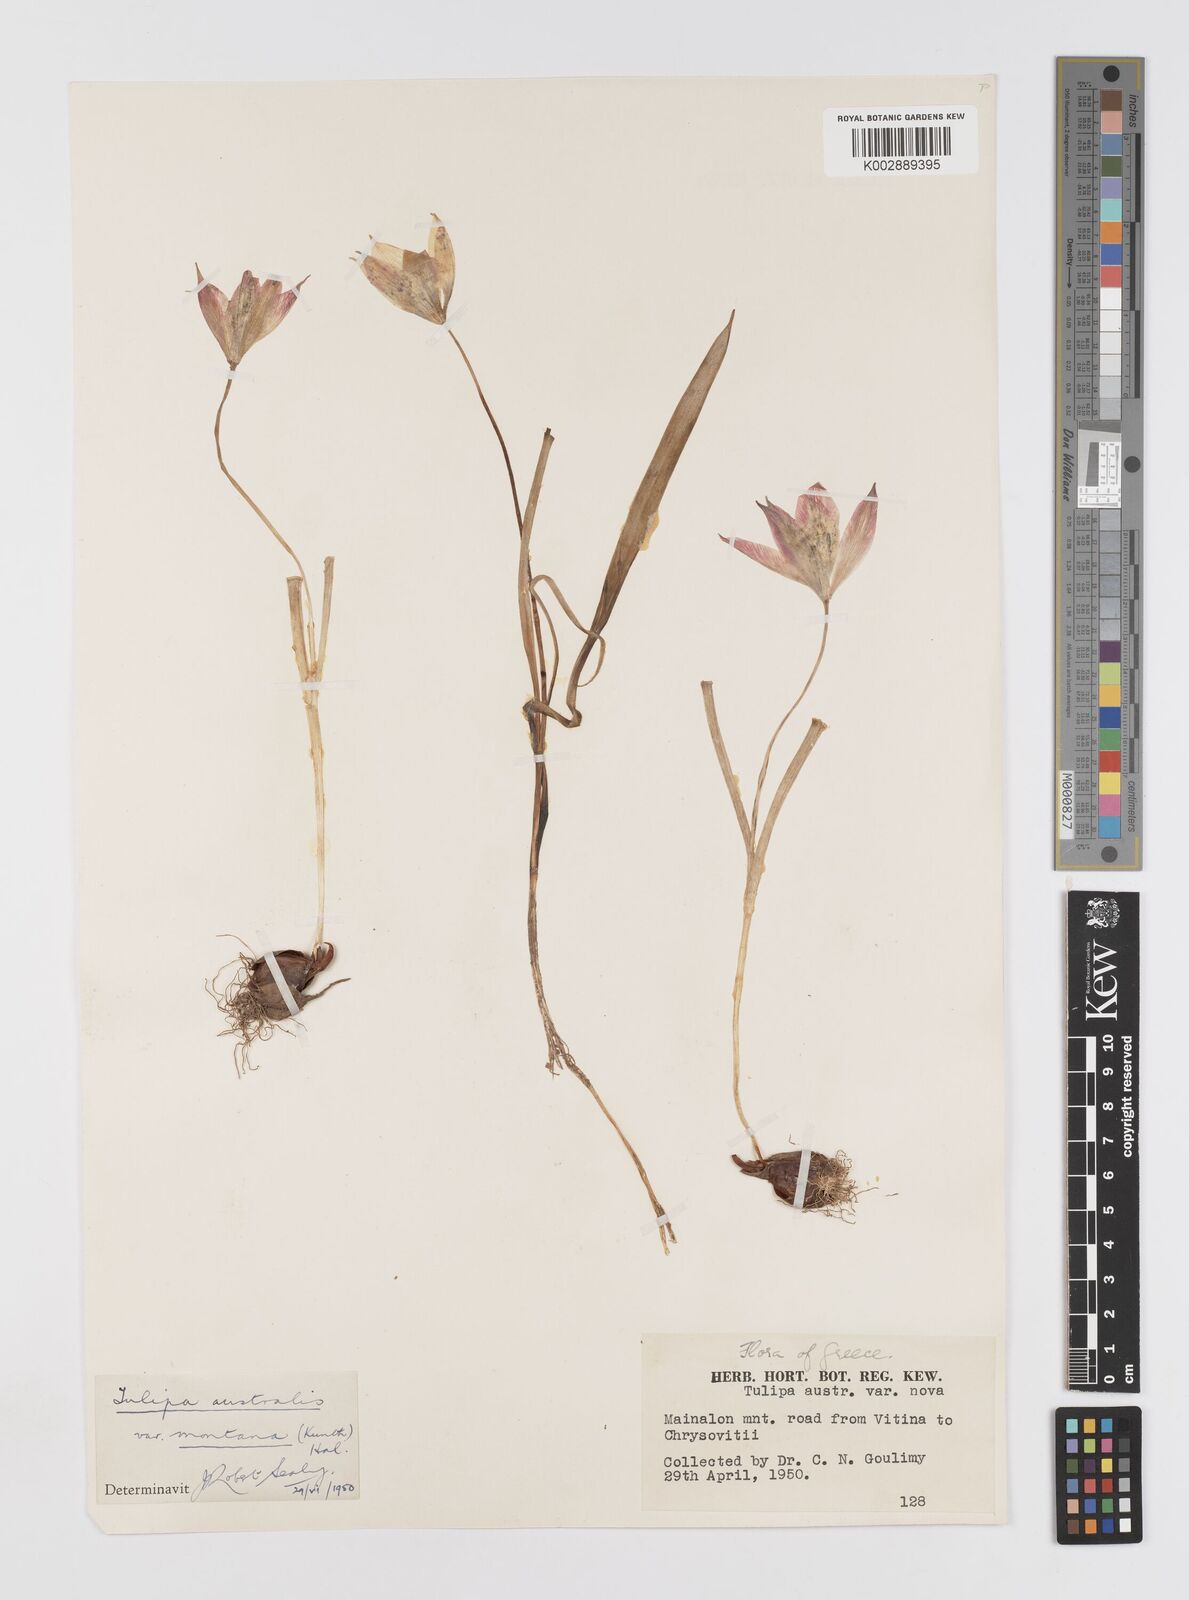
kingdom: Plantae
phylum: Tracheophyta
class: Liliopsida
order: Liliales
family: Liliaceae
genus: Tulipa
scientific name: Tulipa sylvestris
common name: Wild tulip
